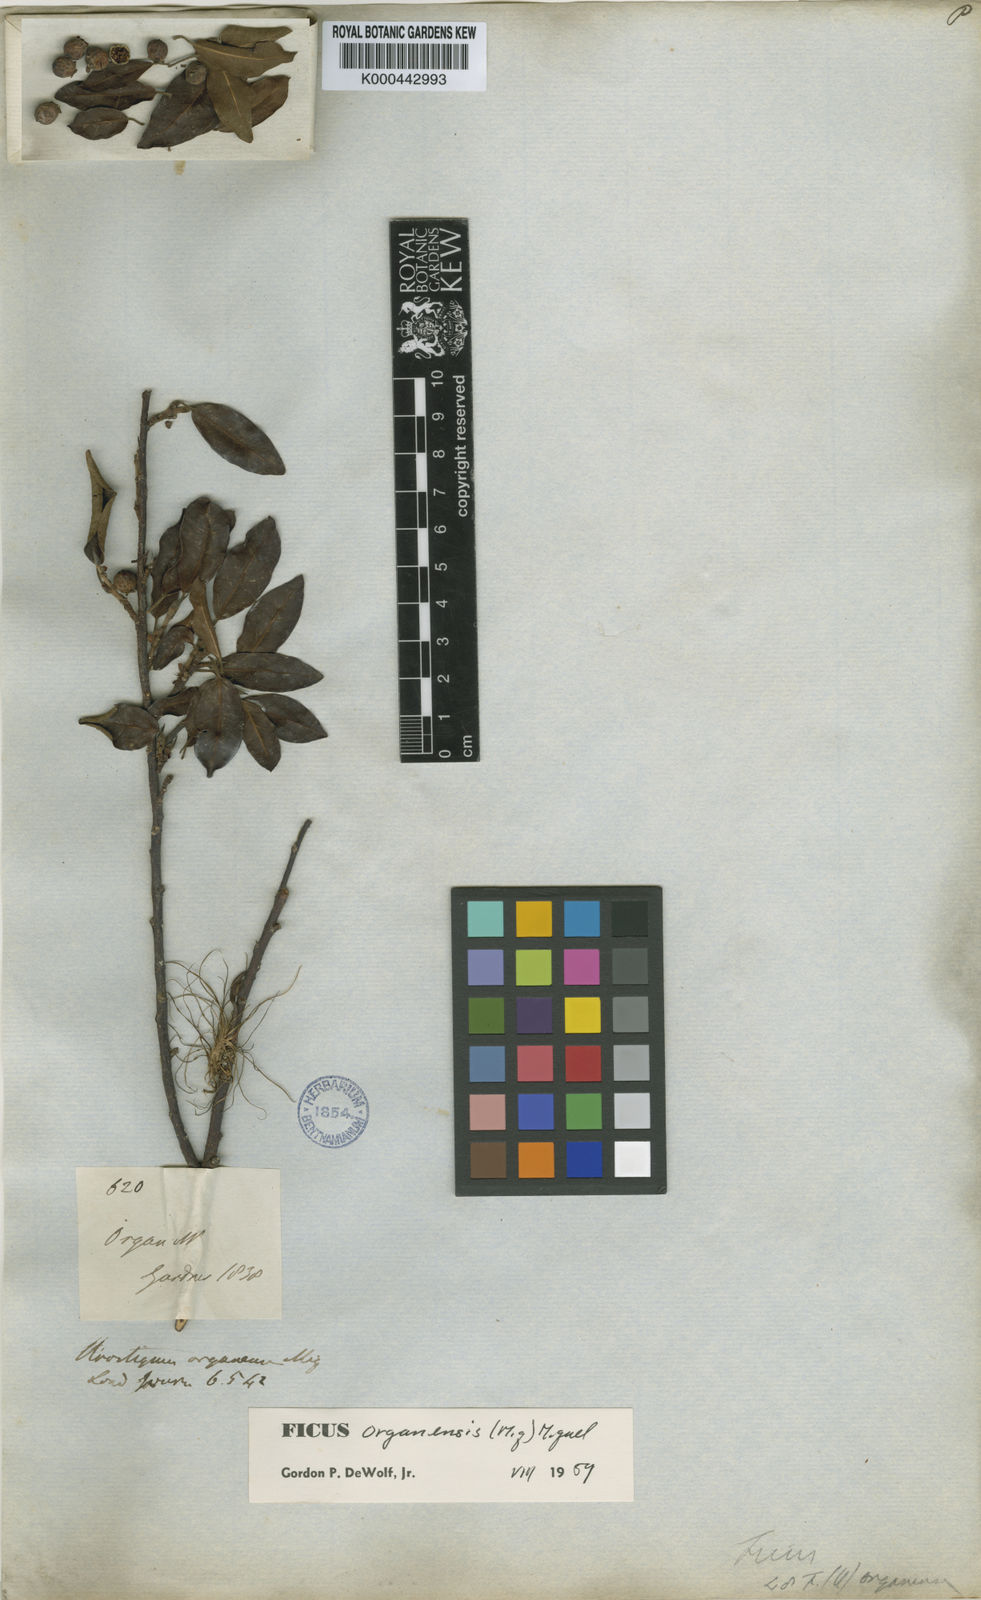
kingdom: Plantae
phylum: Tracheophyta
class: Magnoliopsida
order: Rosales
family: Moraceae
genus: Ficus
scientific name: Ficus organensis
